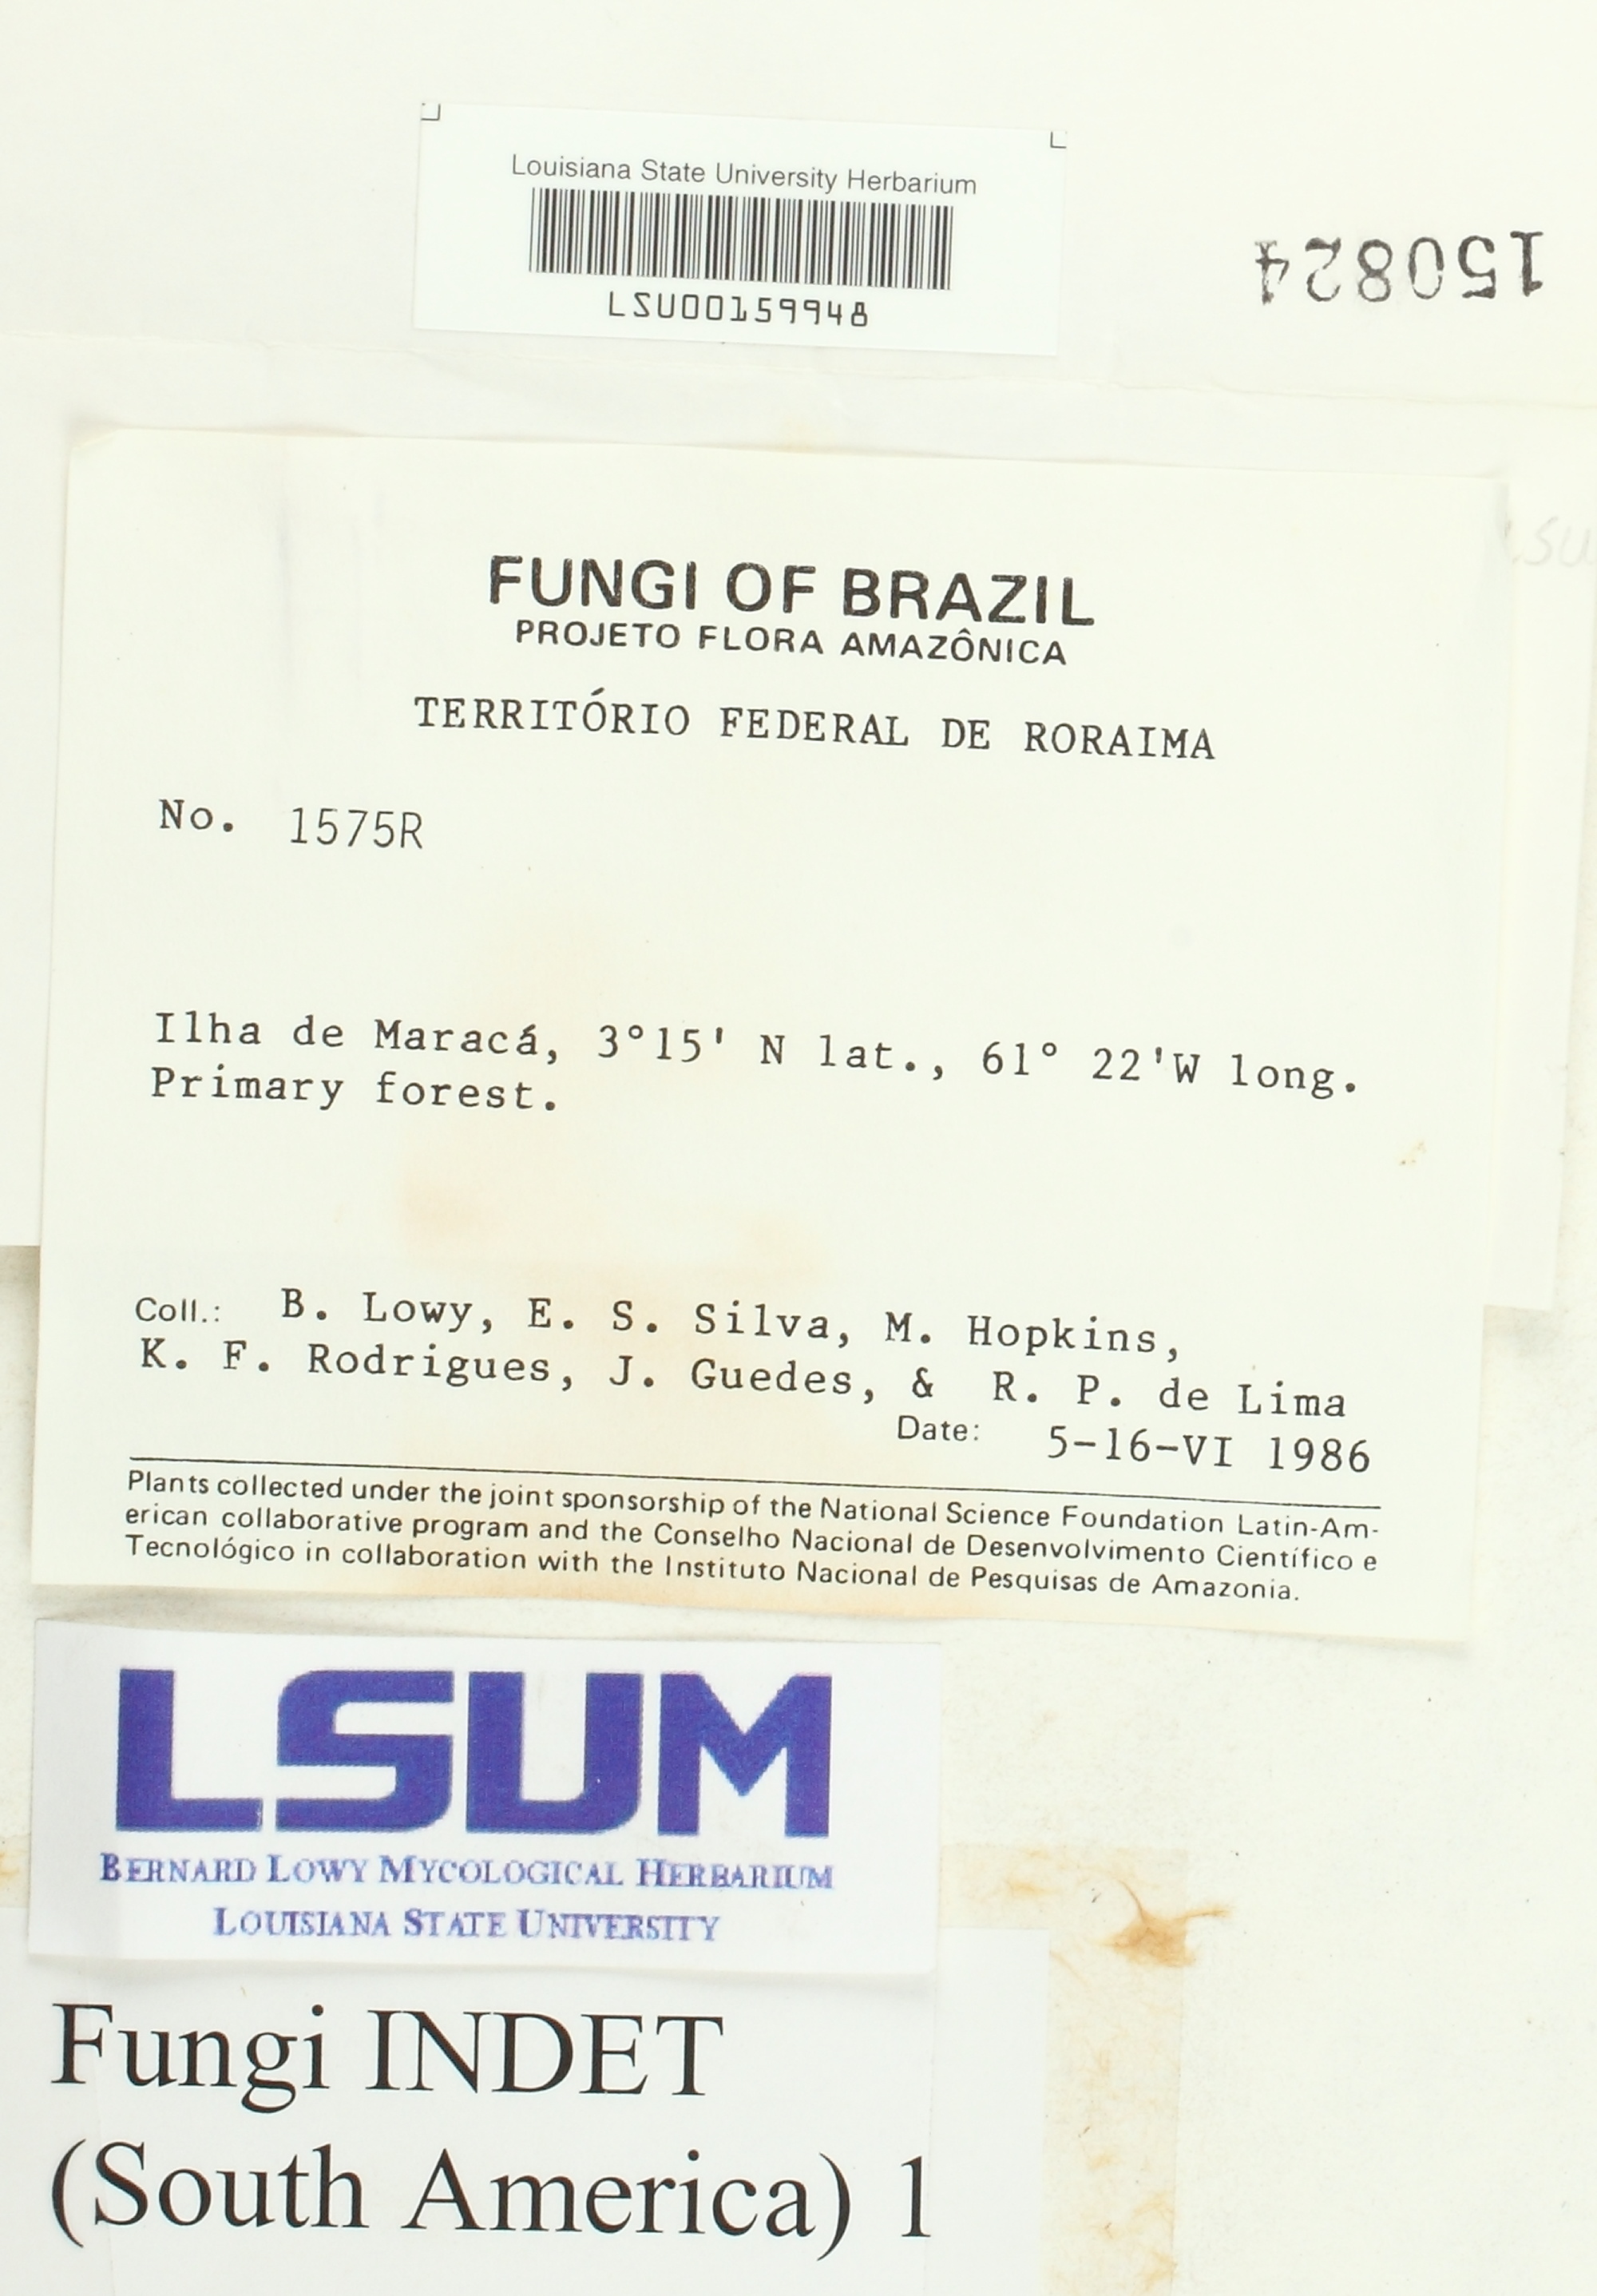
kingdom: Fungi
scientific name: Fungi
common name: Fungi
